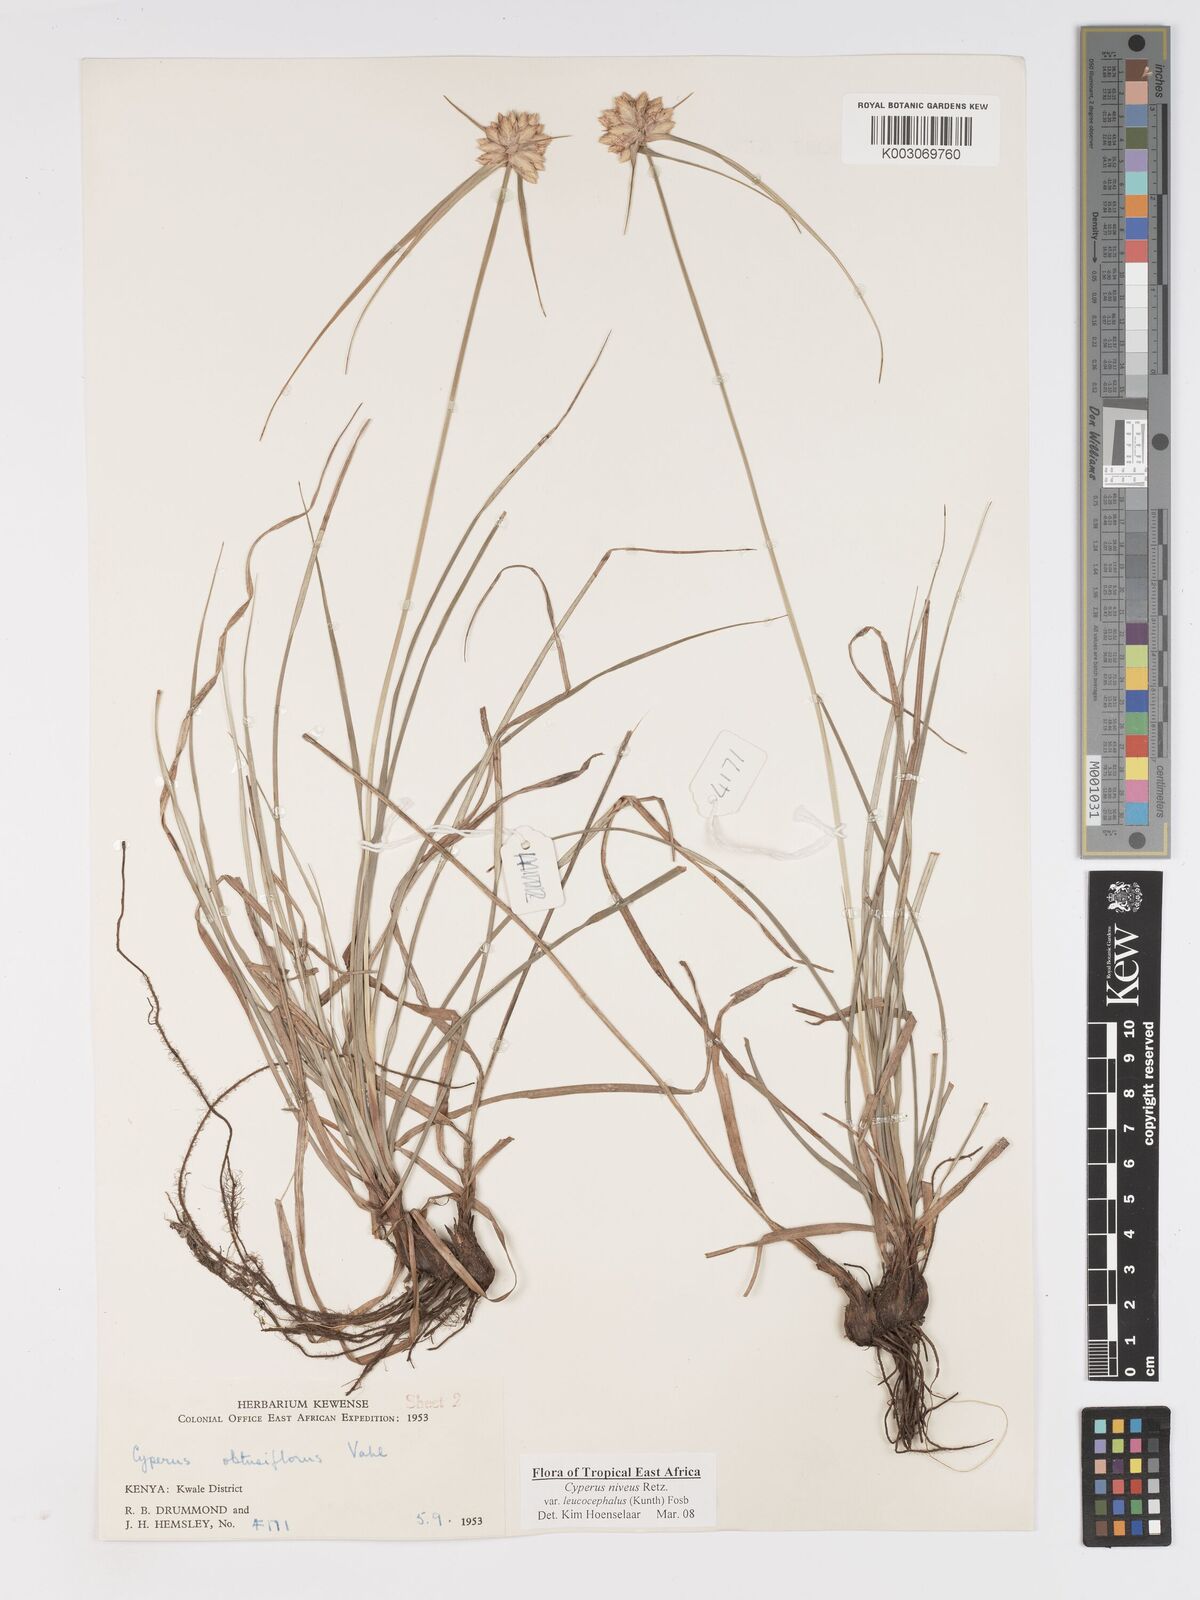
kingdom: Plantae
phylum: Tracheophyta
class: Liliopsida
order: Poales
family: Cyperaceae
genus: Cyperus
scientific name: Cyperus niveus
